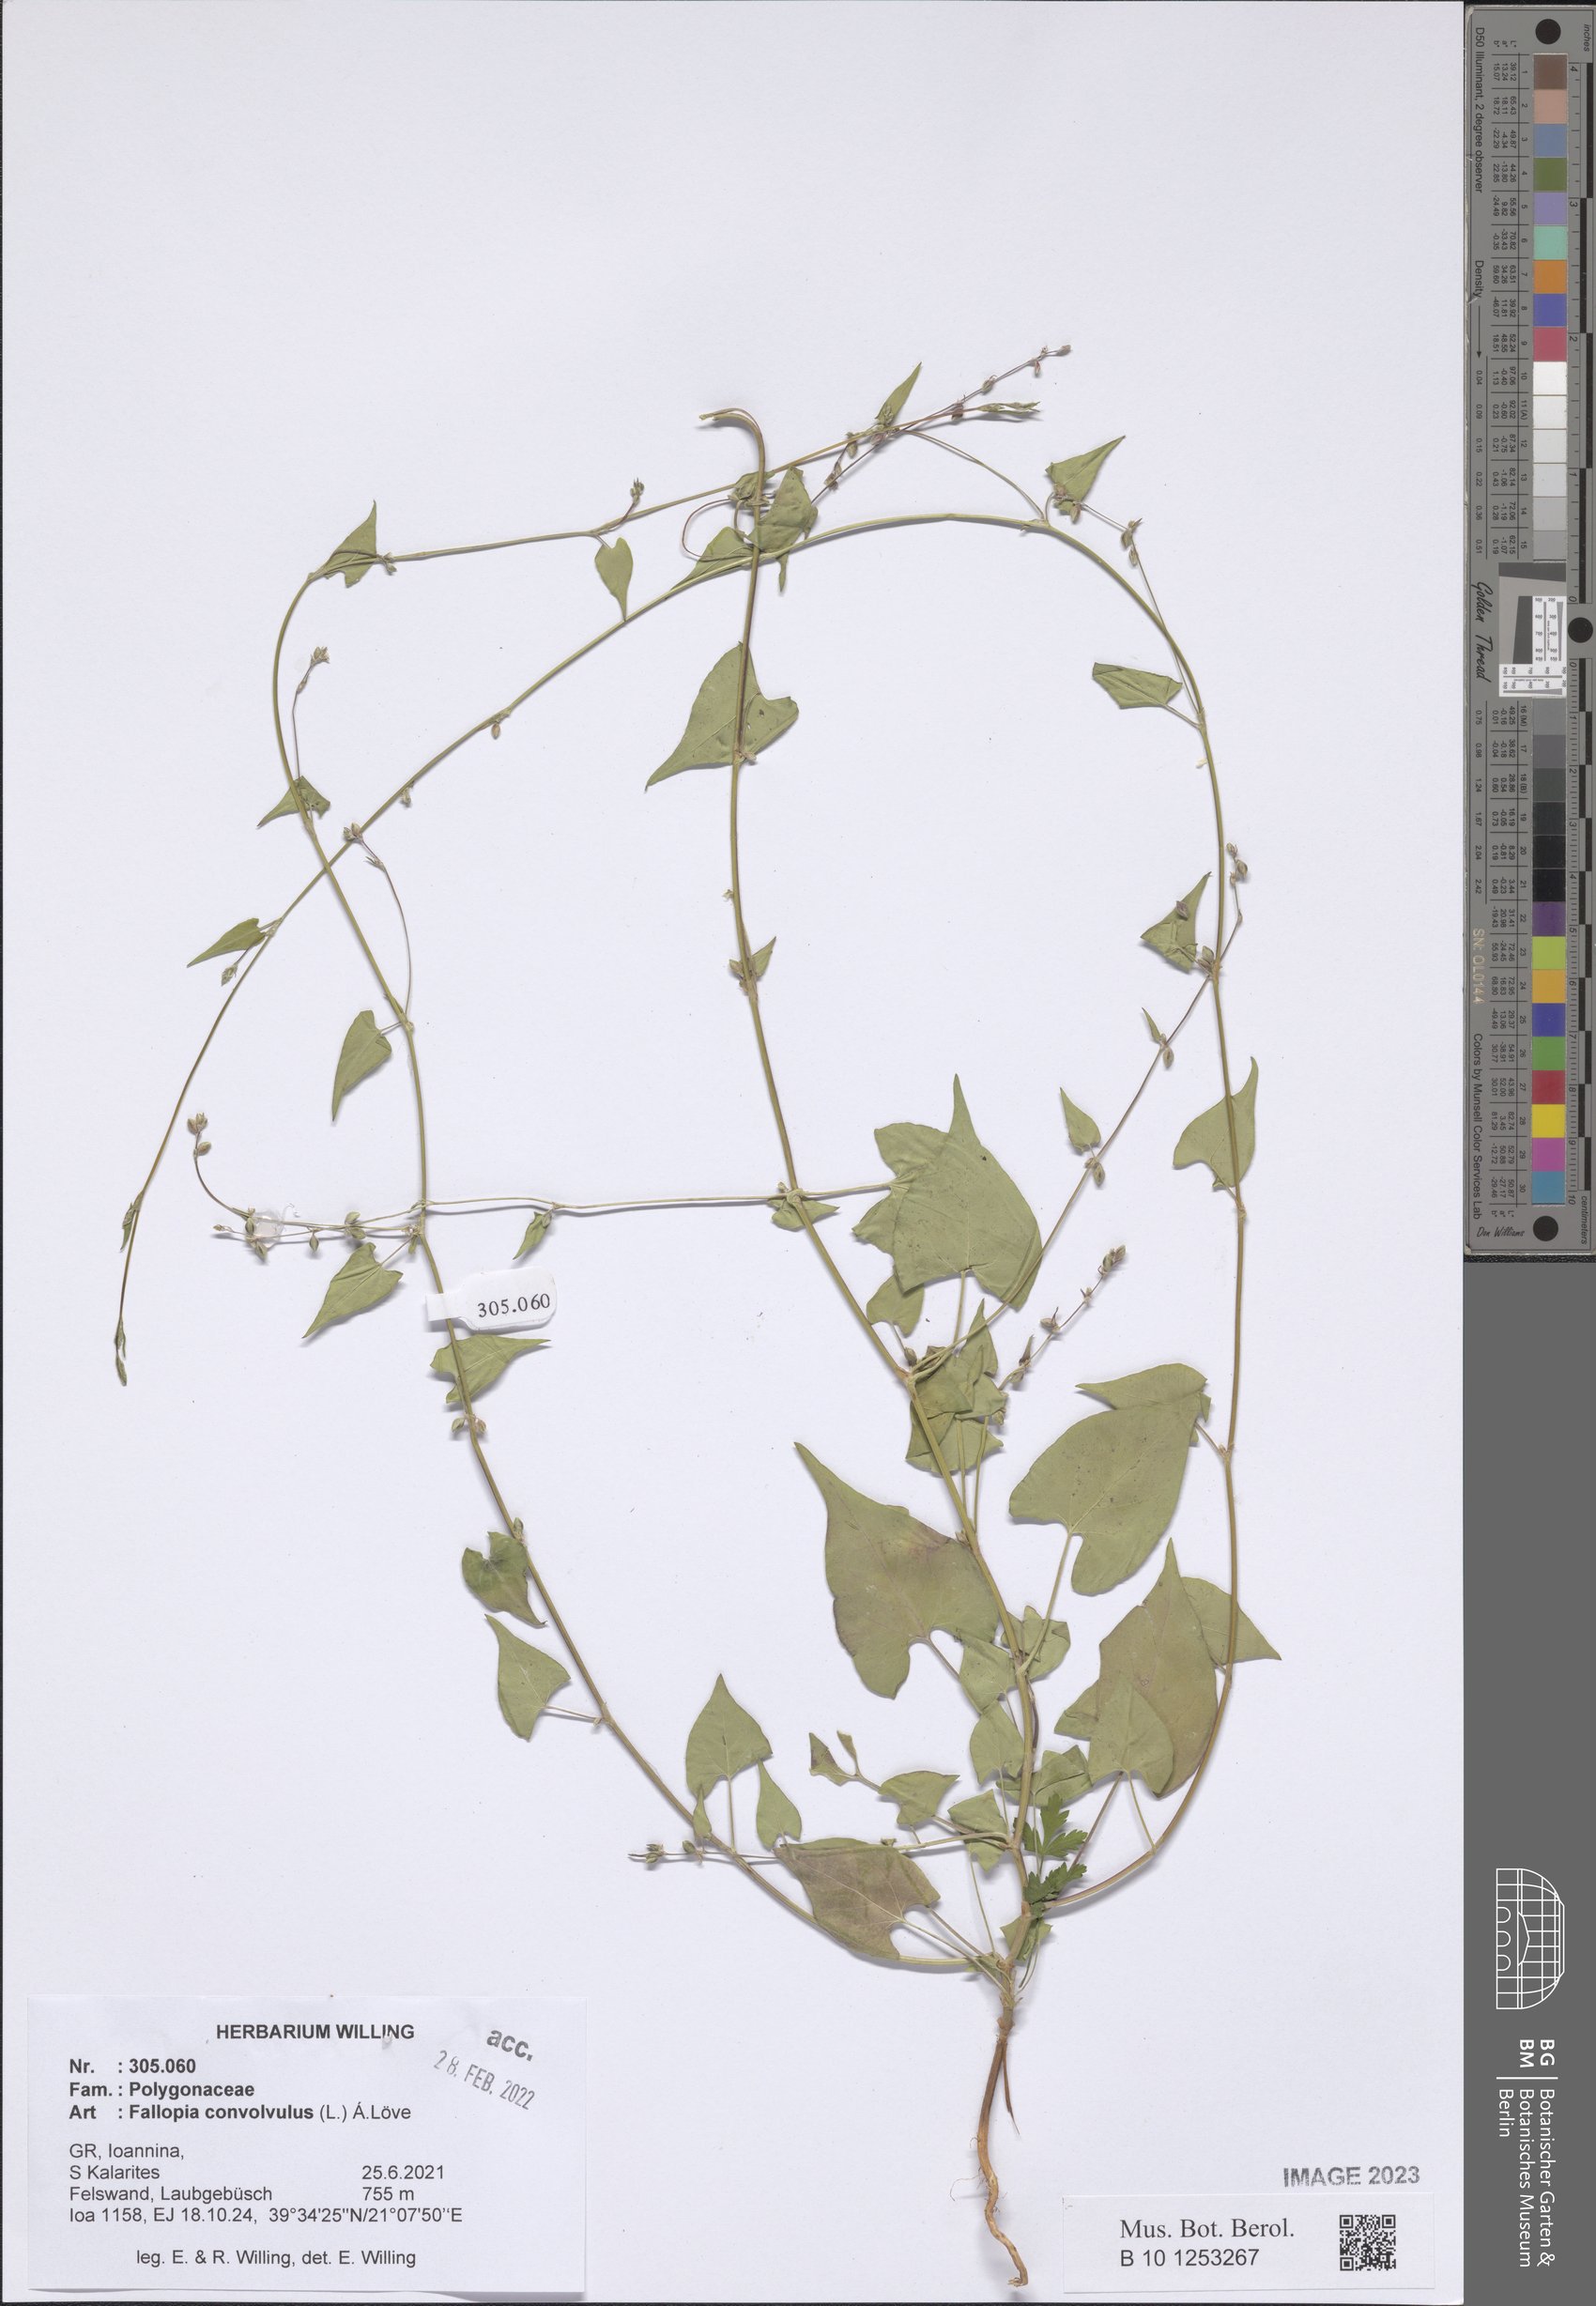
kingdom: Plantae
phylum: Tracheophyta
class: Magnoliopsida
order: Caryophyllales
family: Polygonaceae
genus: Fallopia
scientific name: Fallopia convolvulus
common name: Black bindweed
